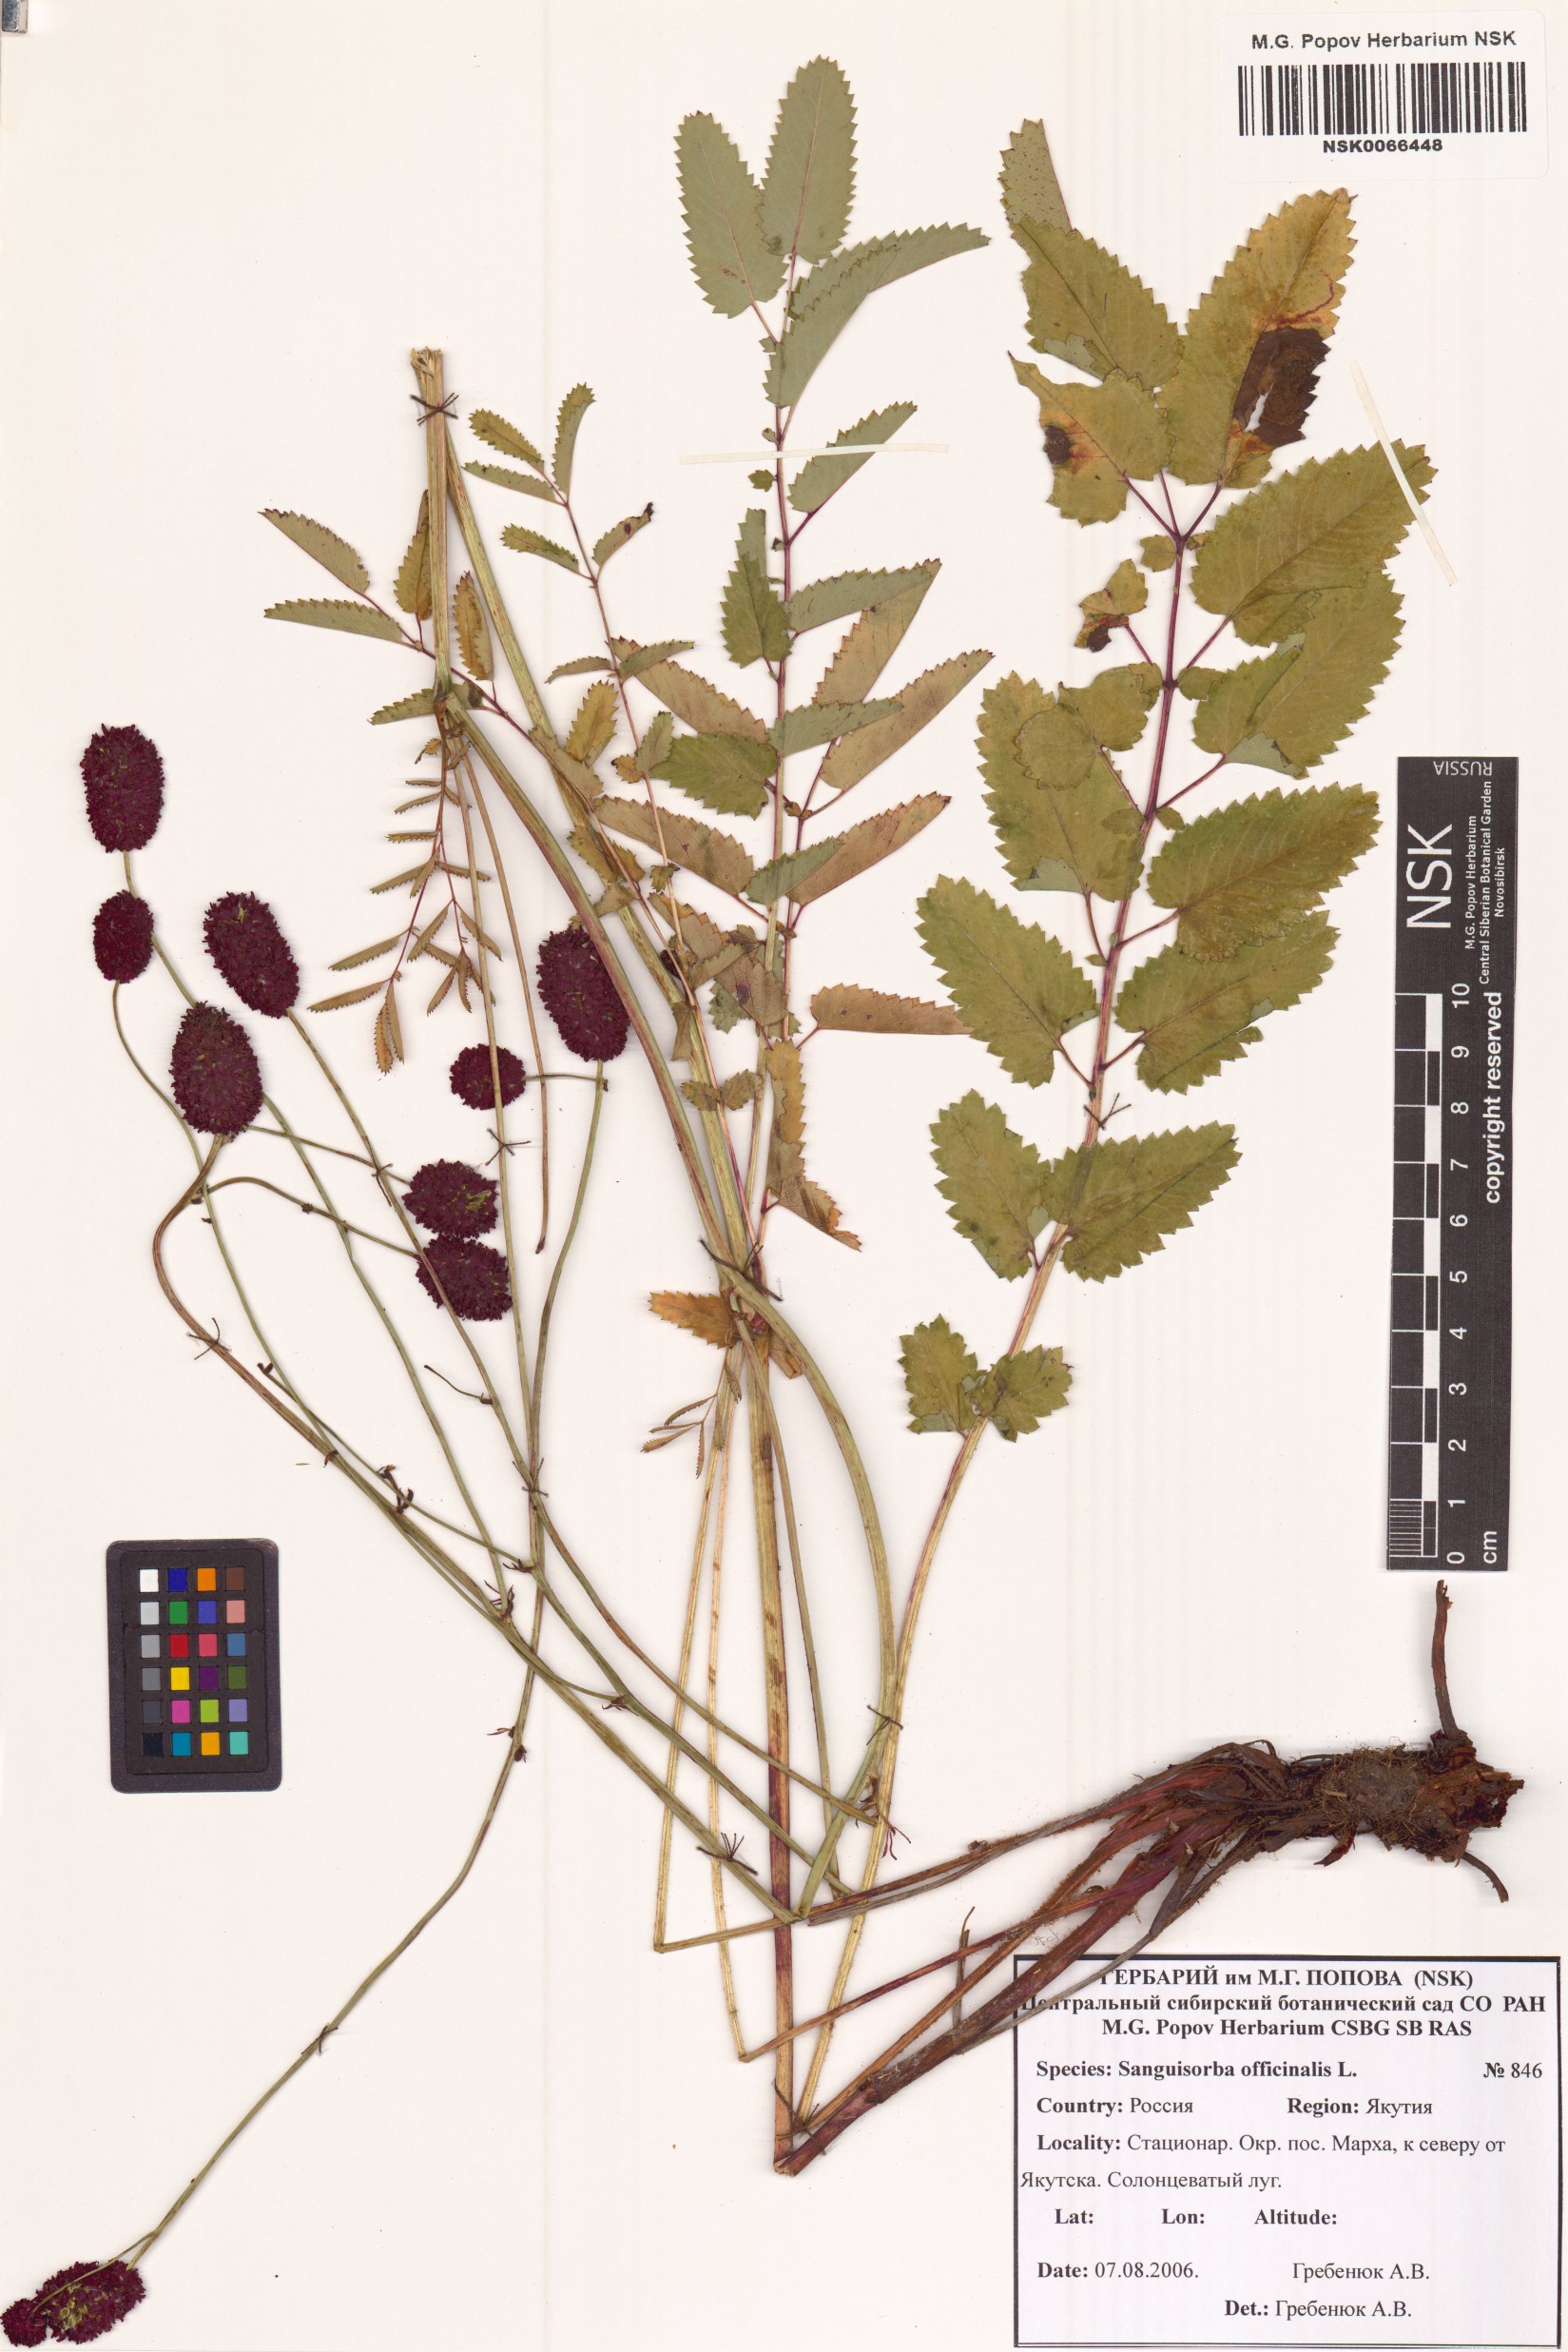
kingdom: Plantae
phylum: Tracheophyta
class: Magnoliopsida
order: Rosales
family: Rosaceae
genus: Sanguisorba
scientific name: Sanguisorba officinalis
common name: Great burnet
